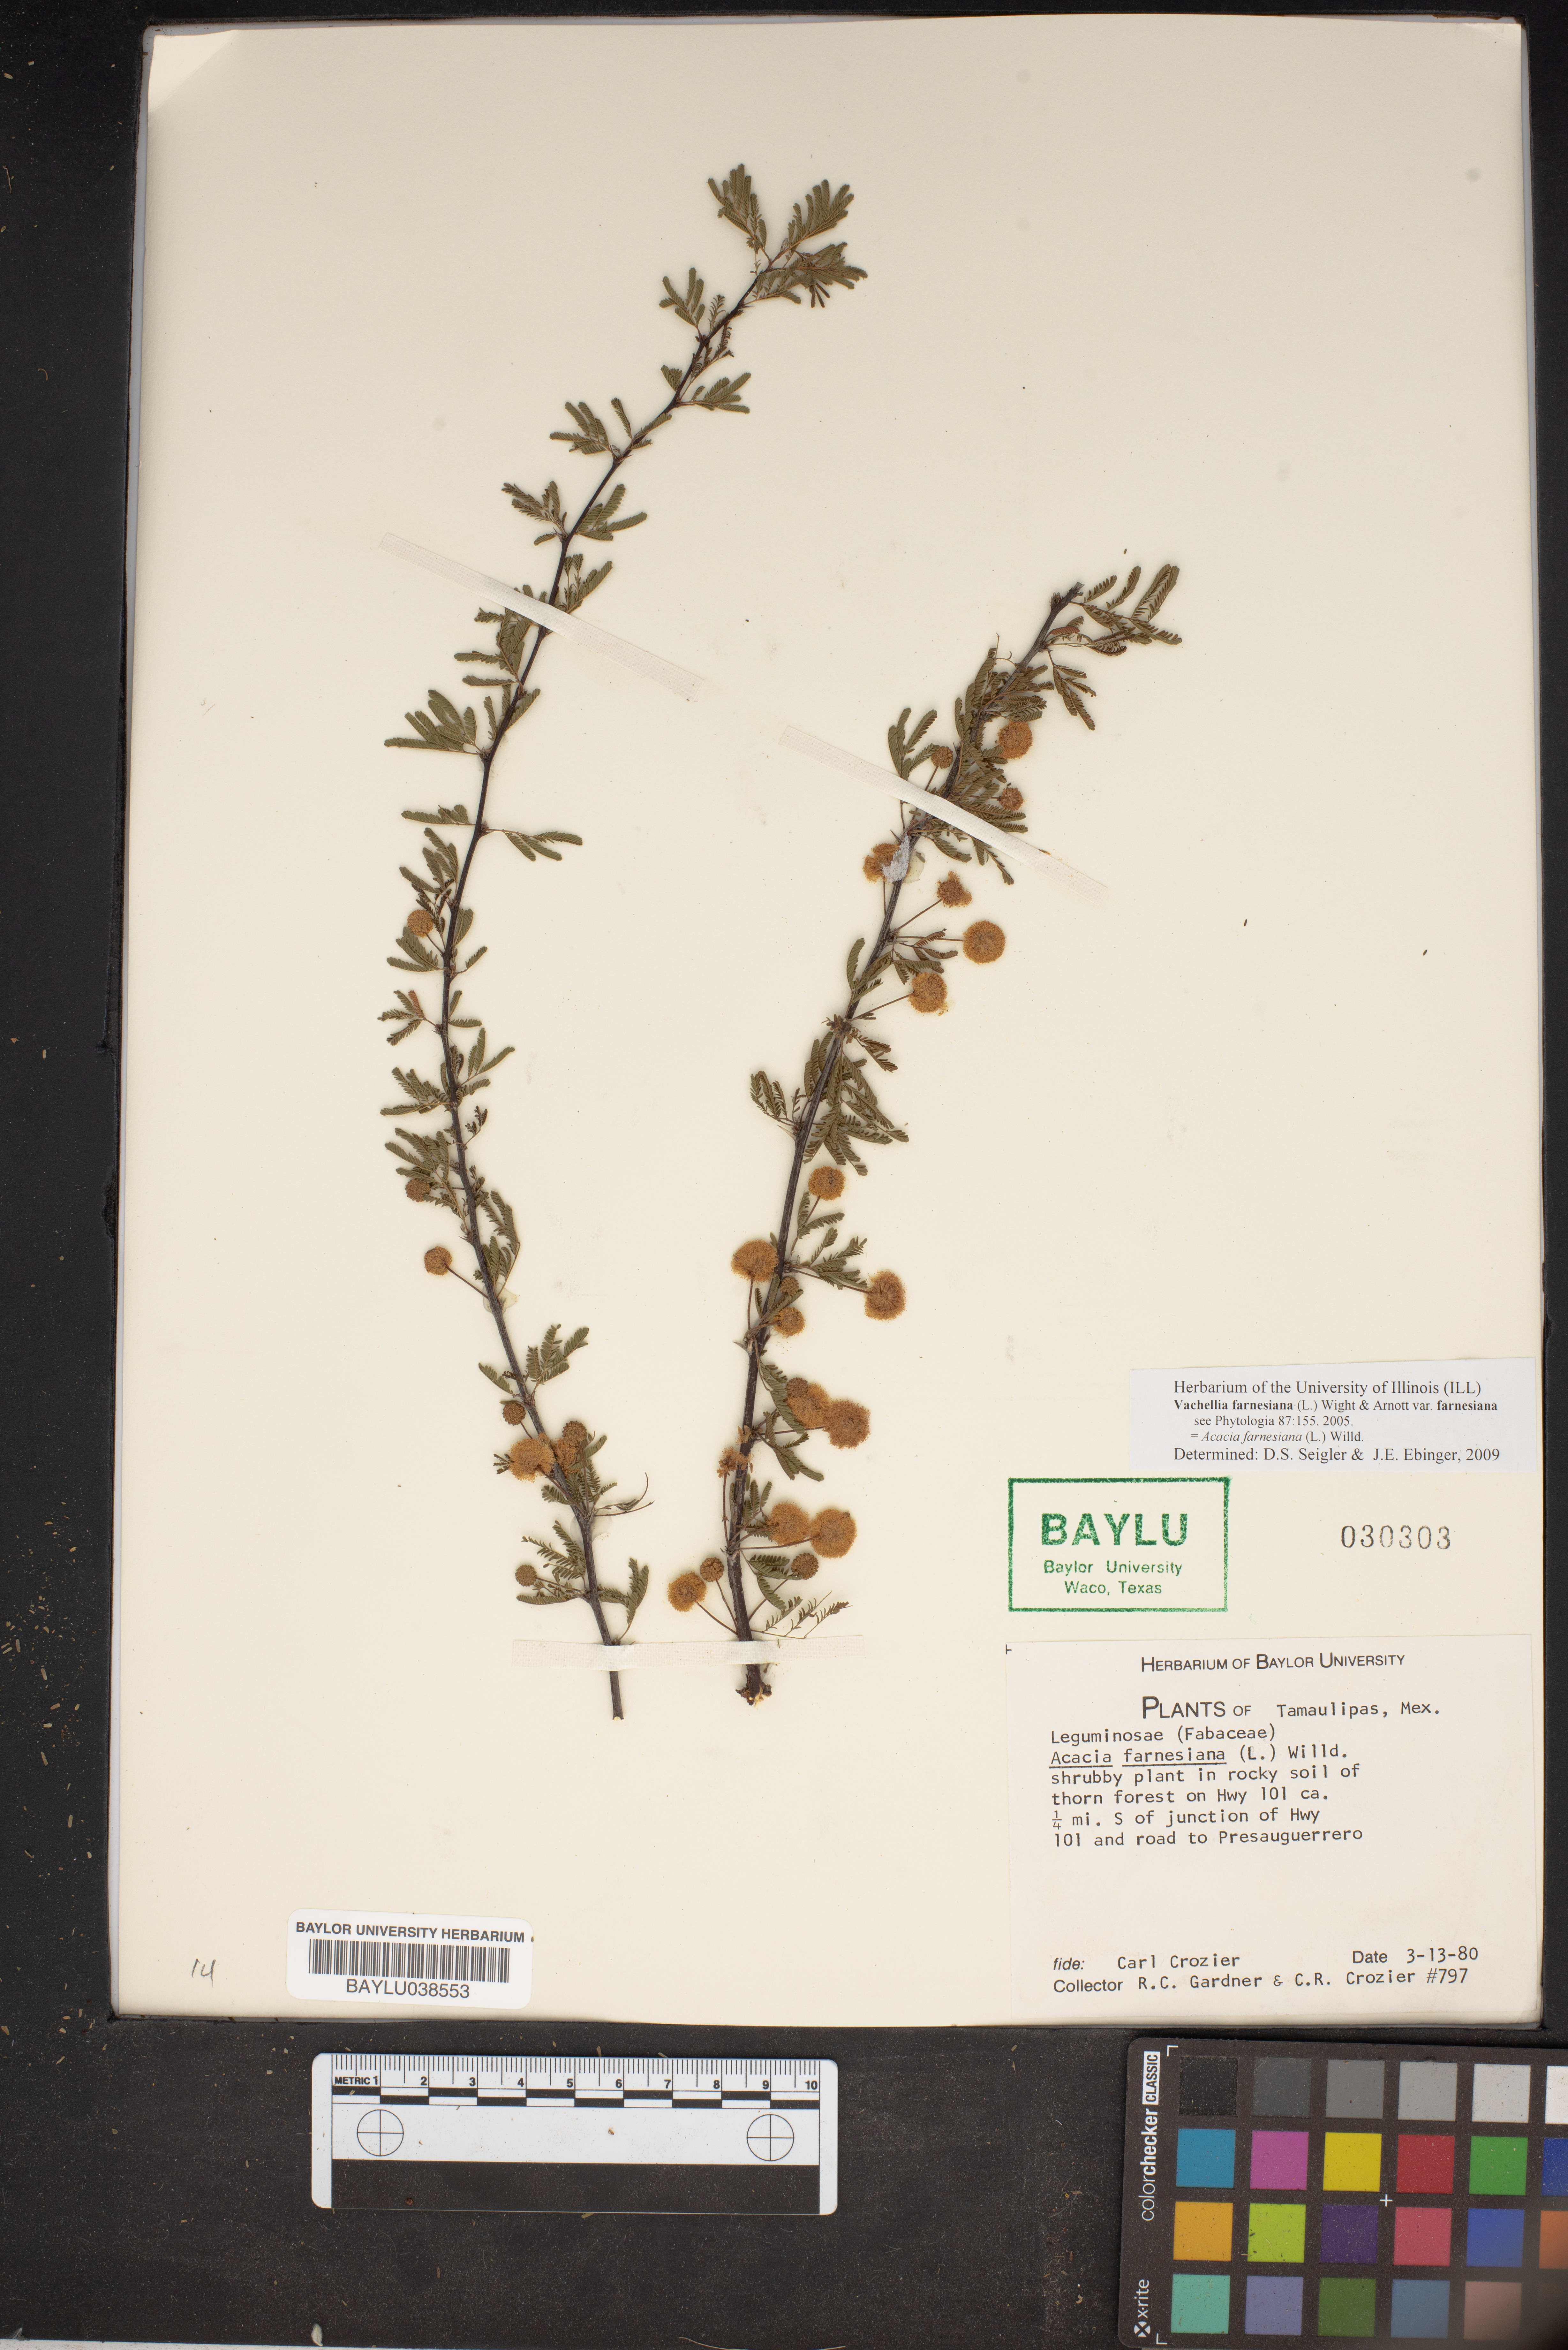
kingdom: Plantae
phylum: Tracheophyta
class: Magnoliopsida
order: Fabales
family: Fabaceae
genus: Vachellia
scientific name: Vachellia farnesiana
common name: Sweet acacia
